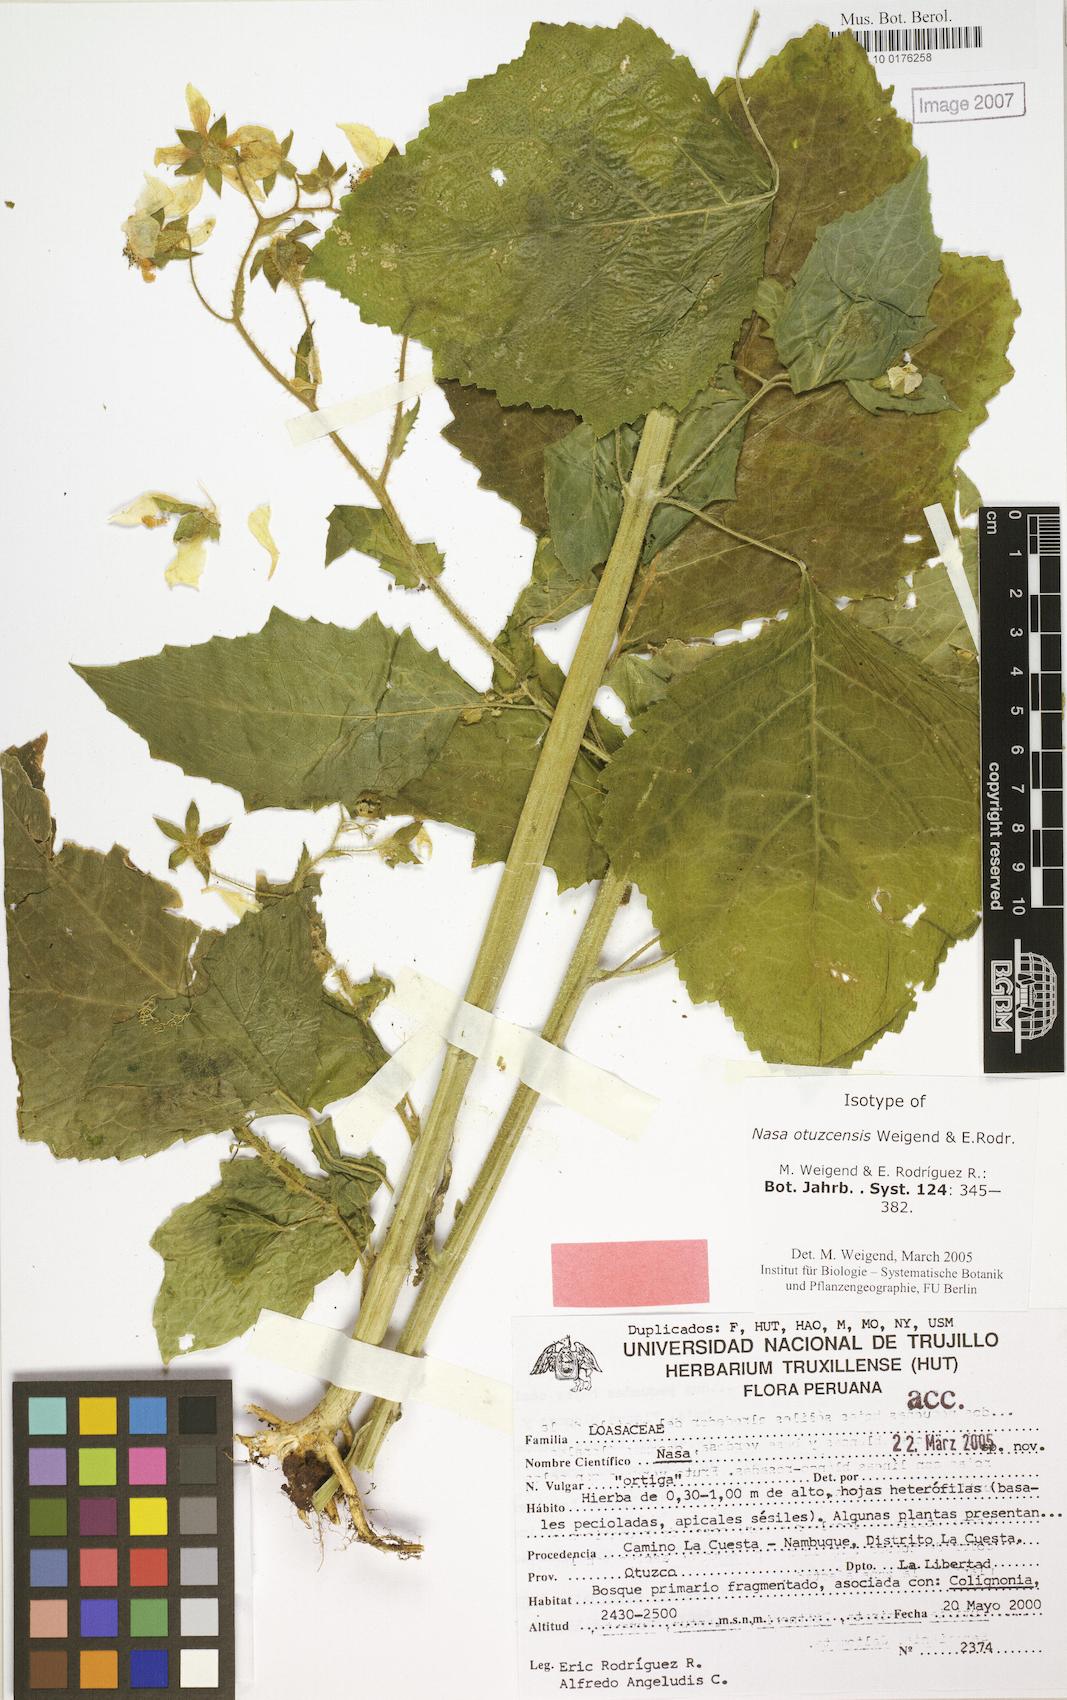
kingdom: Plantae
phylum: Tracheophyta
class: Magnoliopsida
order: Cornales
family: Loasaceae
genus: Nasa
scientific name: Nasa otuzcensis
